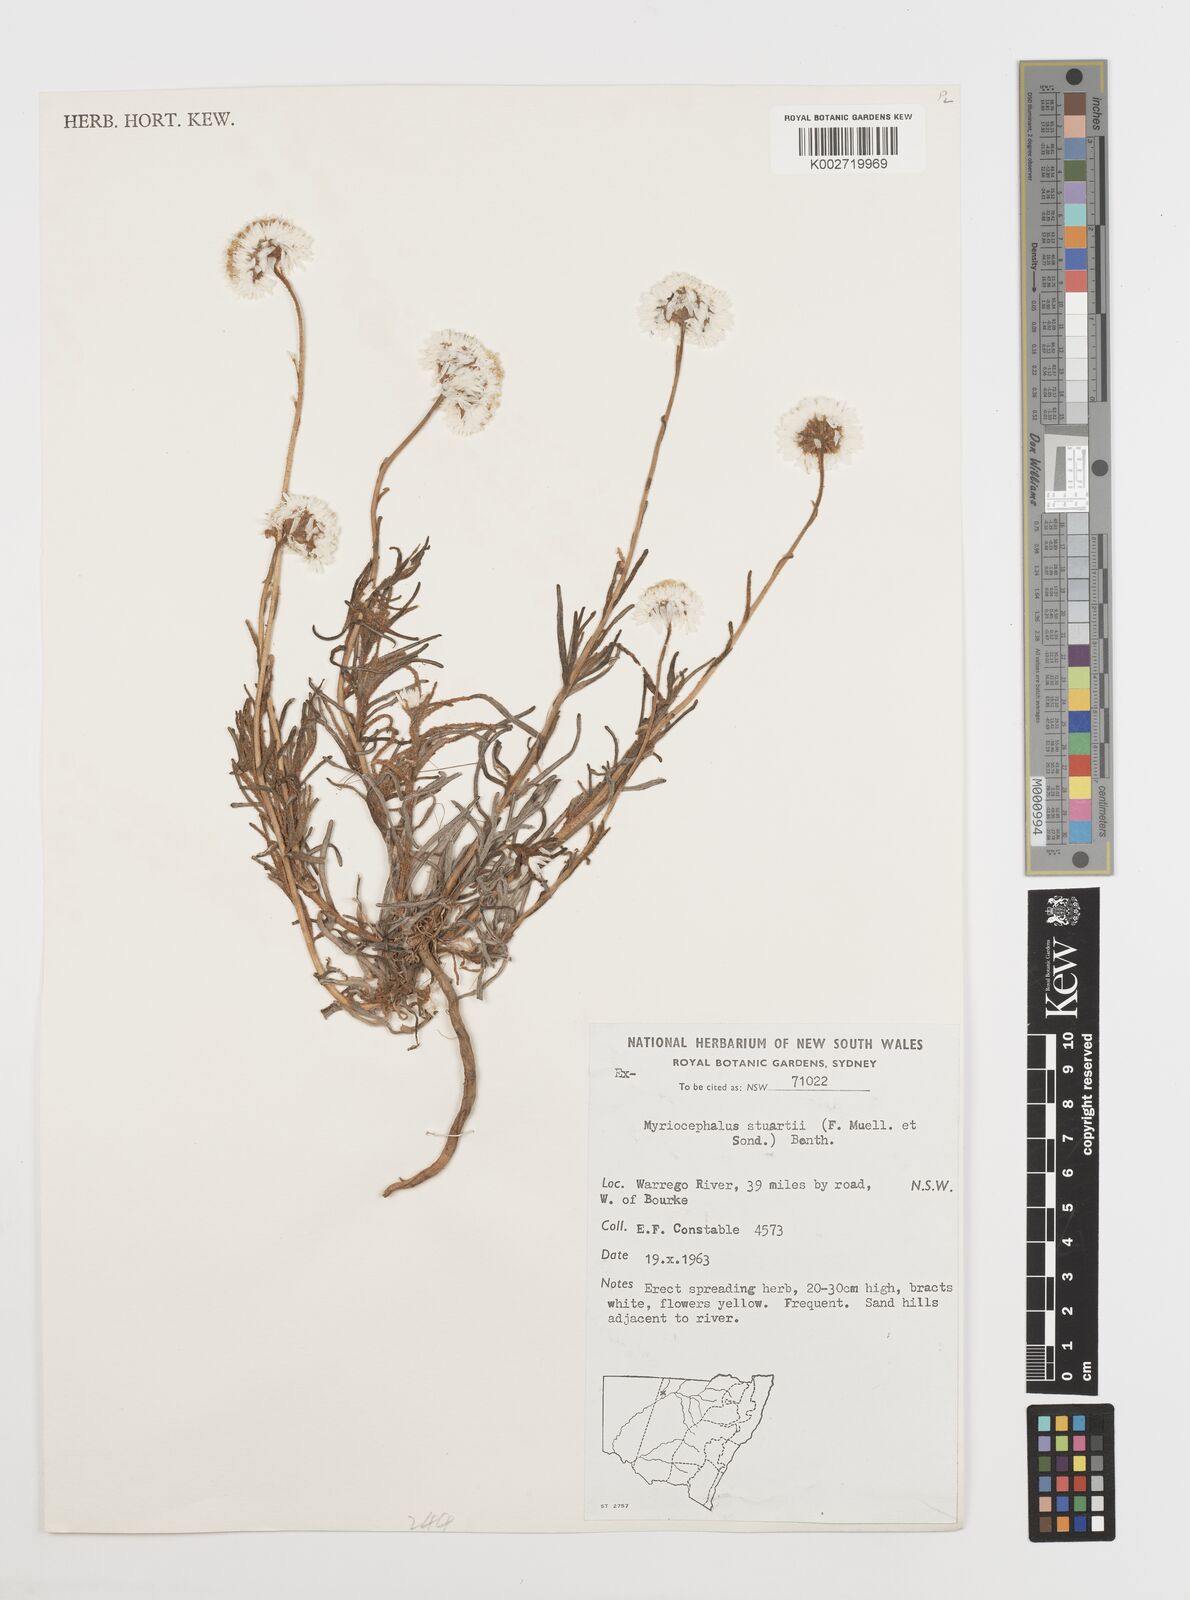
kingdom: Plantae
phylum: Tracheophyta
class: Magnoliopsida
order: Asterales
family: Asteraceae
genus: Polycalymma
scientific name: Polycalymma stuartii
